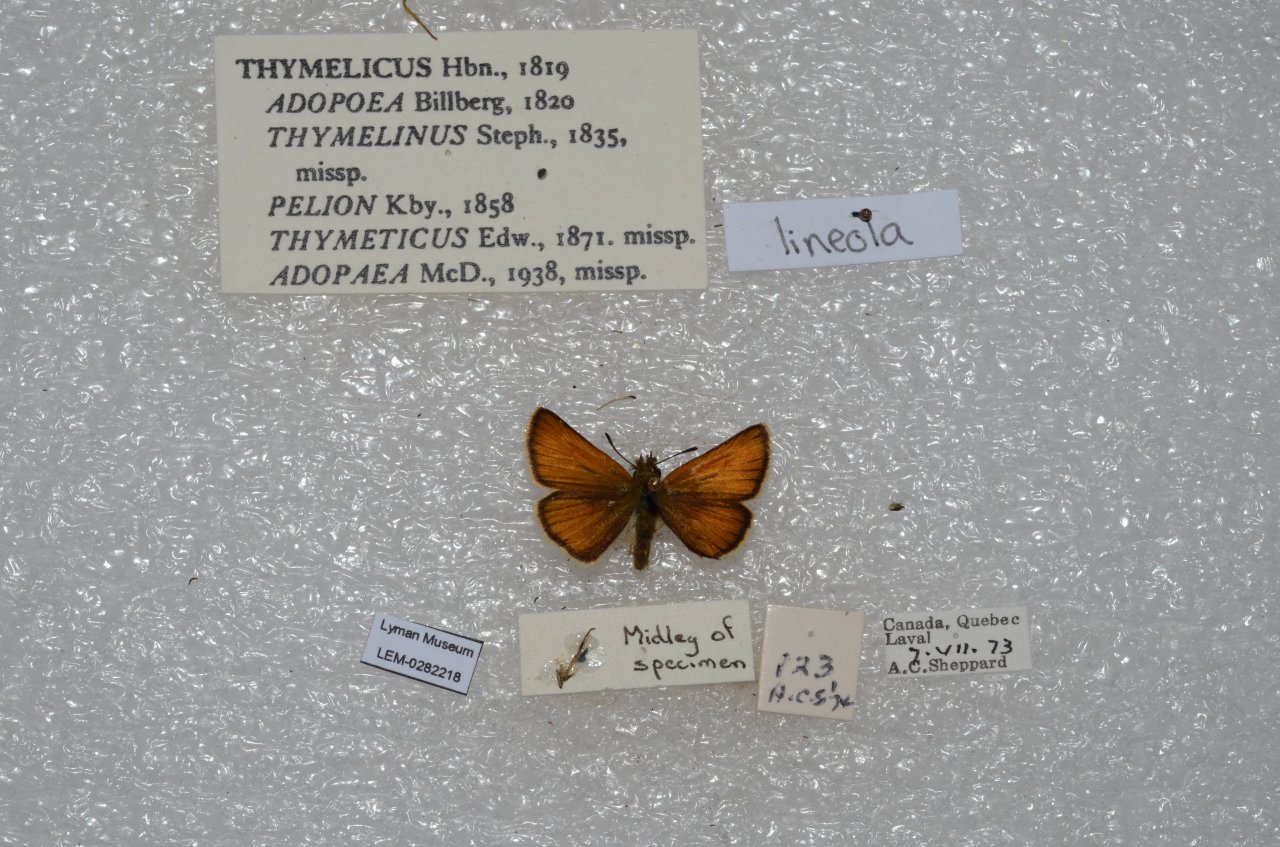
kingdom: Animalia
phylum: Arthropoda
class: Insecta
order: Lepidoptera
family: Hesperiidae
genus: Thymelicus
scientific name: Thymelicus lineola
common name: European Skipper
